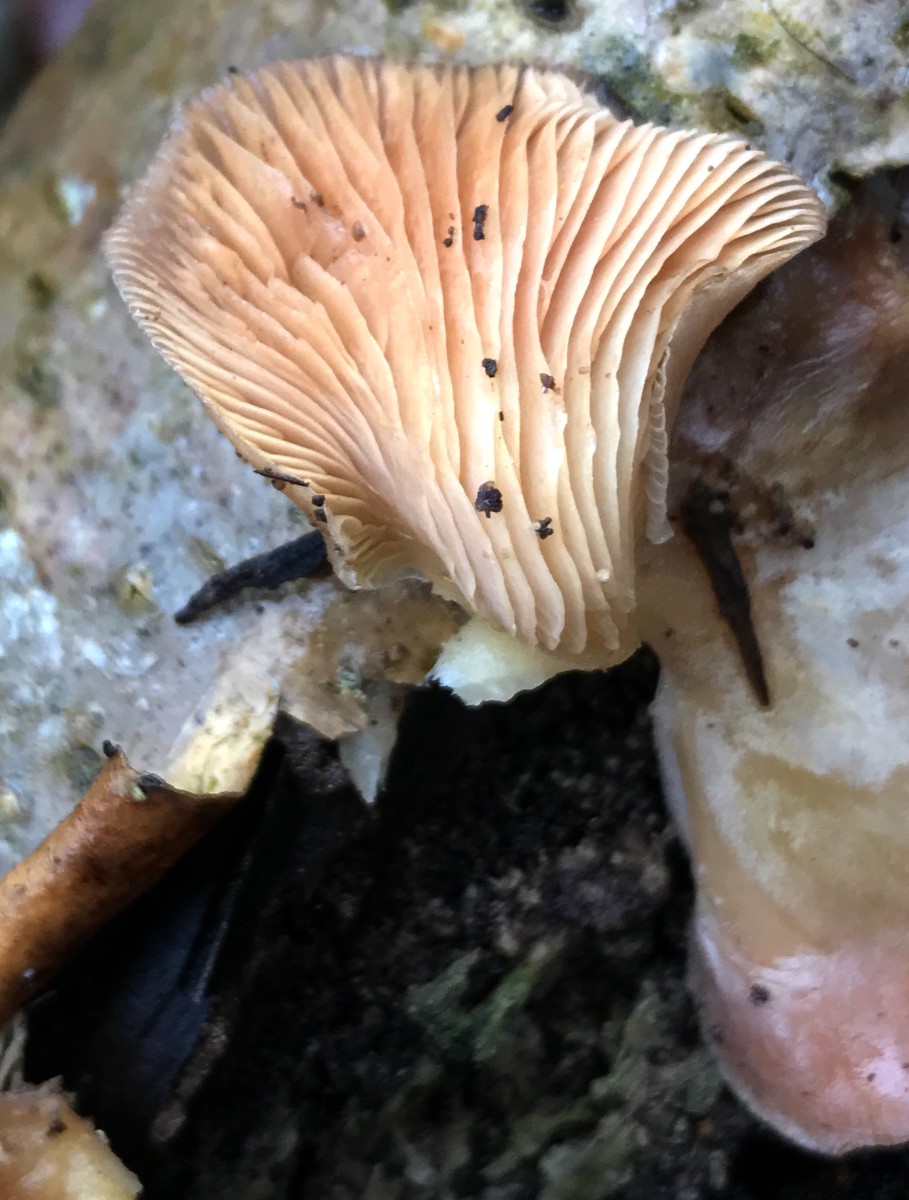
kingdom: Fungi
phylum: Basidiomycota
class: Agaricomycetes
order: Agaricales
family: Sarcomyxaceae
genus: Sarcomyxa
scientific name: Sarcomyxa serotina
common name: gummihat
